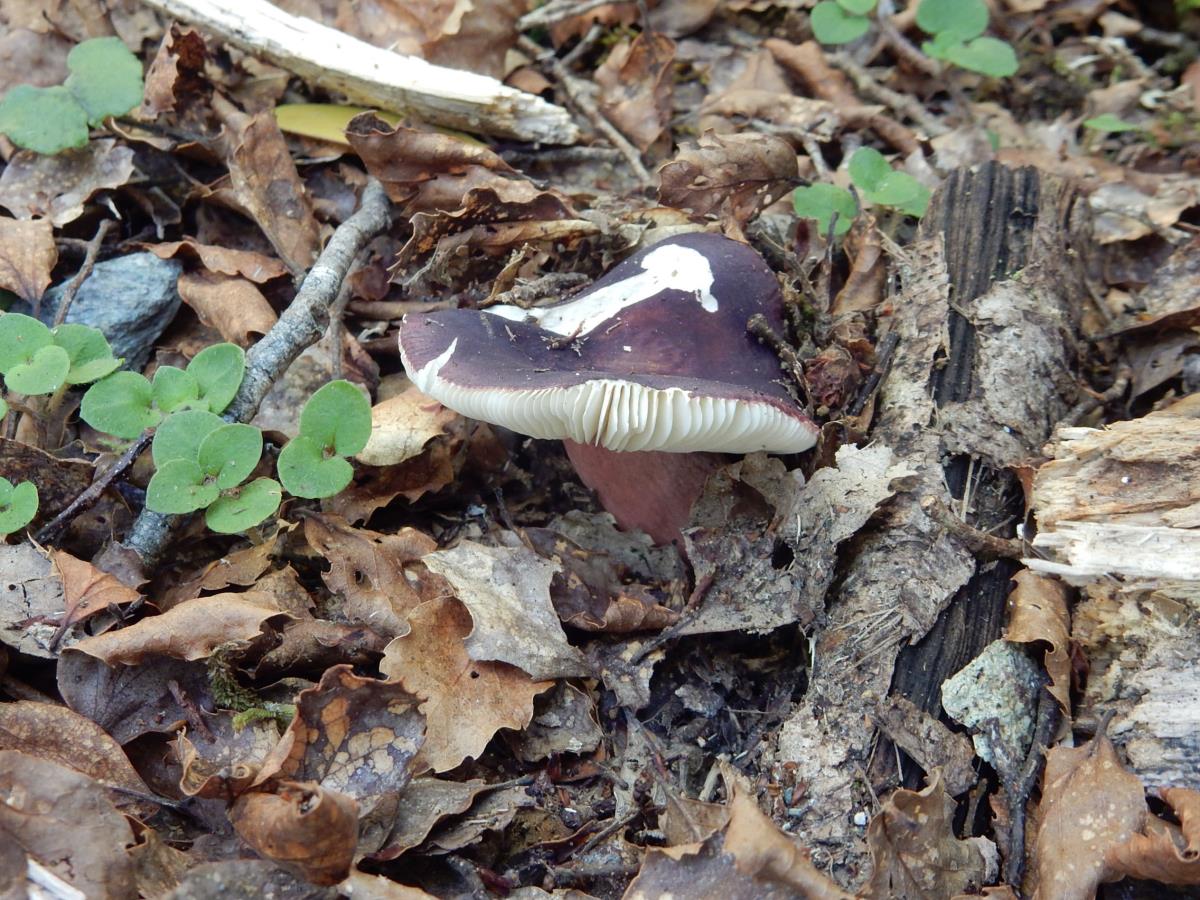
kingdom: Fungi
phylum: Basidiomycota
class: Agaricomycetes
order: Russulales
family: Russulaceae
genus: Russula
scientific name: Russula griseoviolacea
